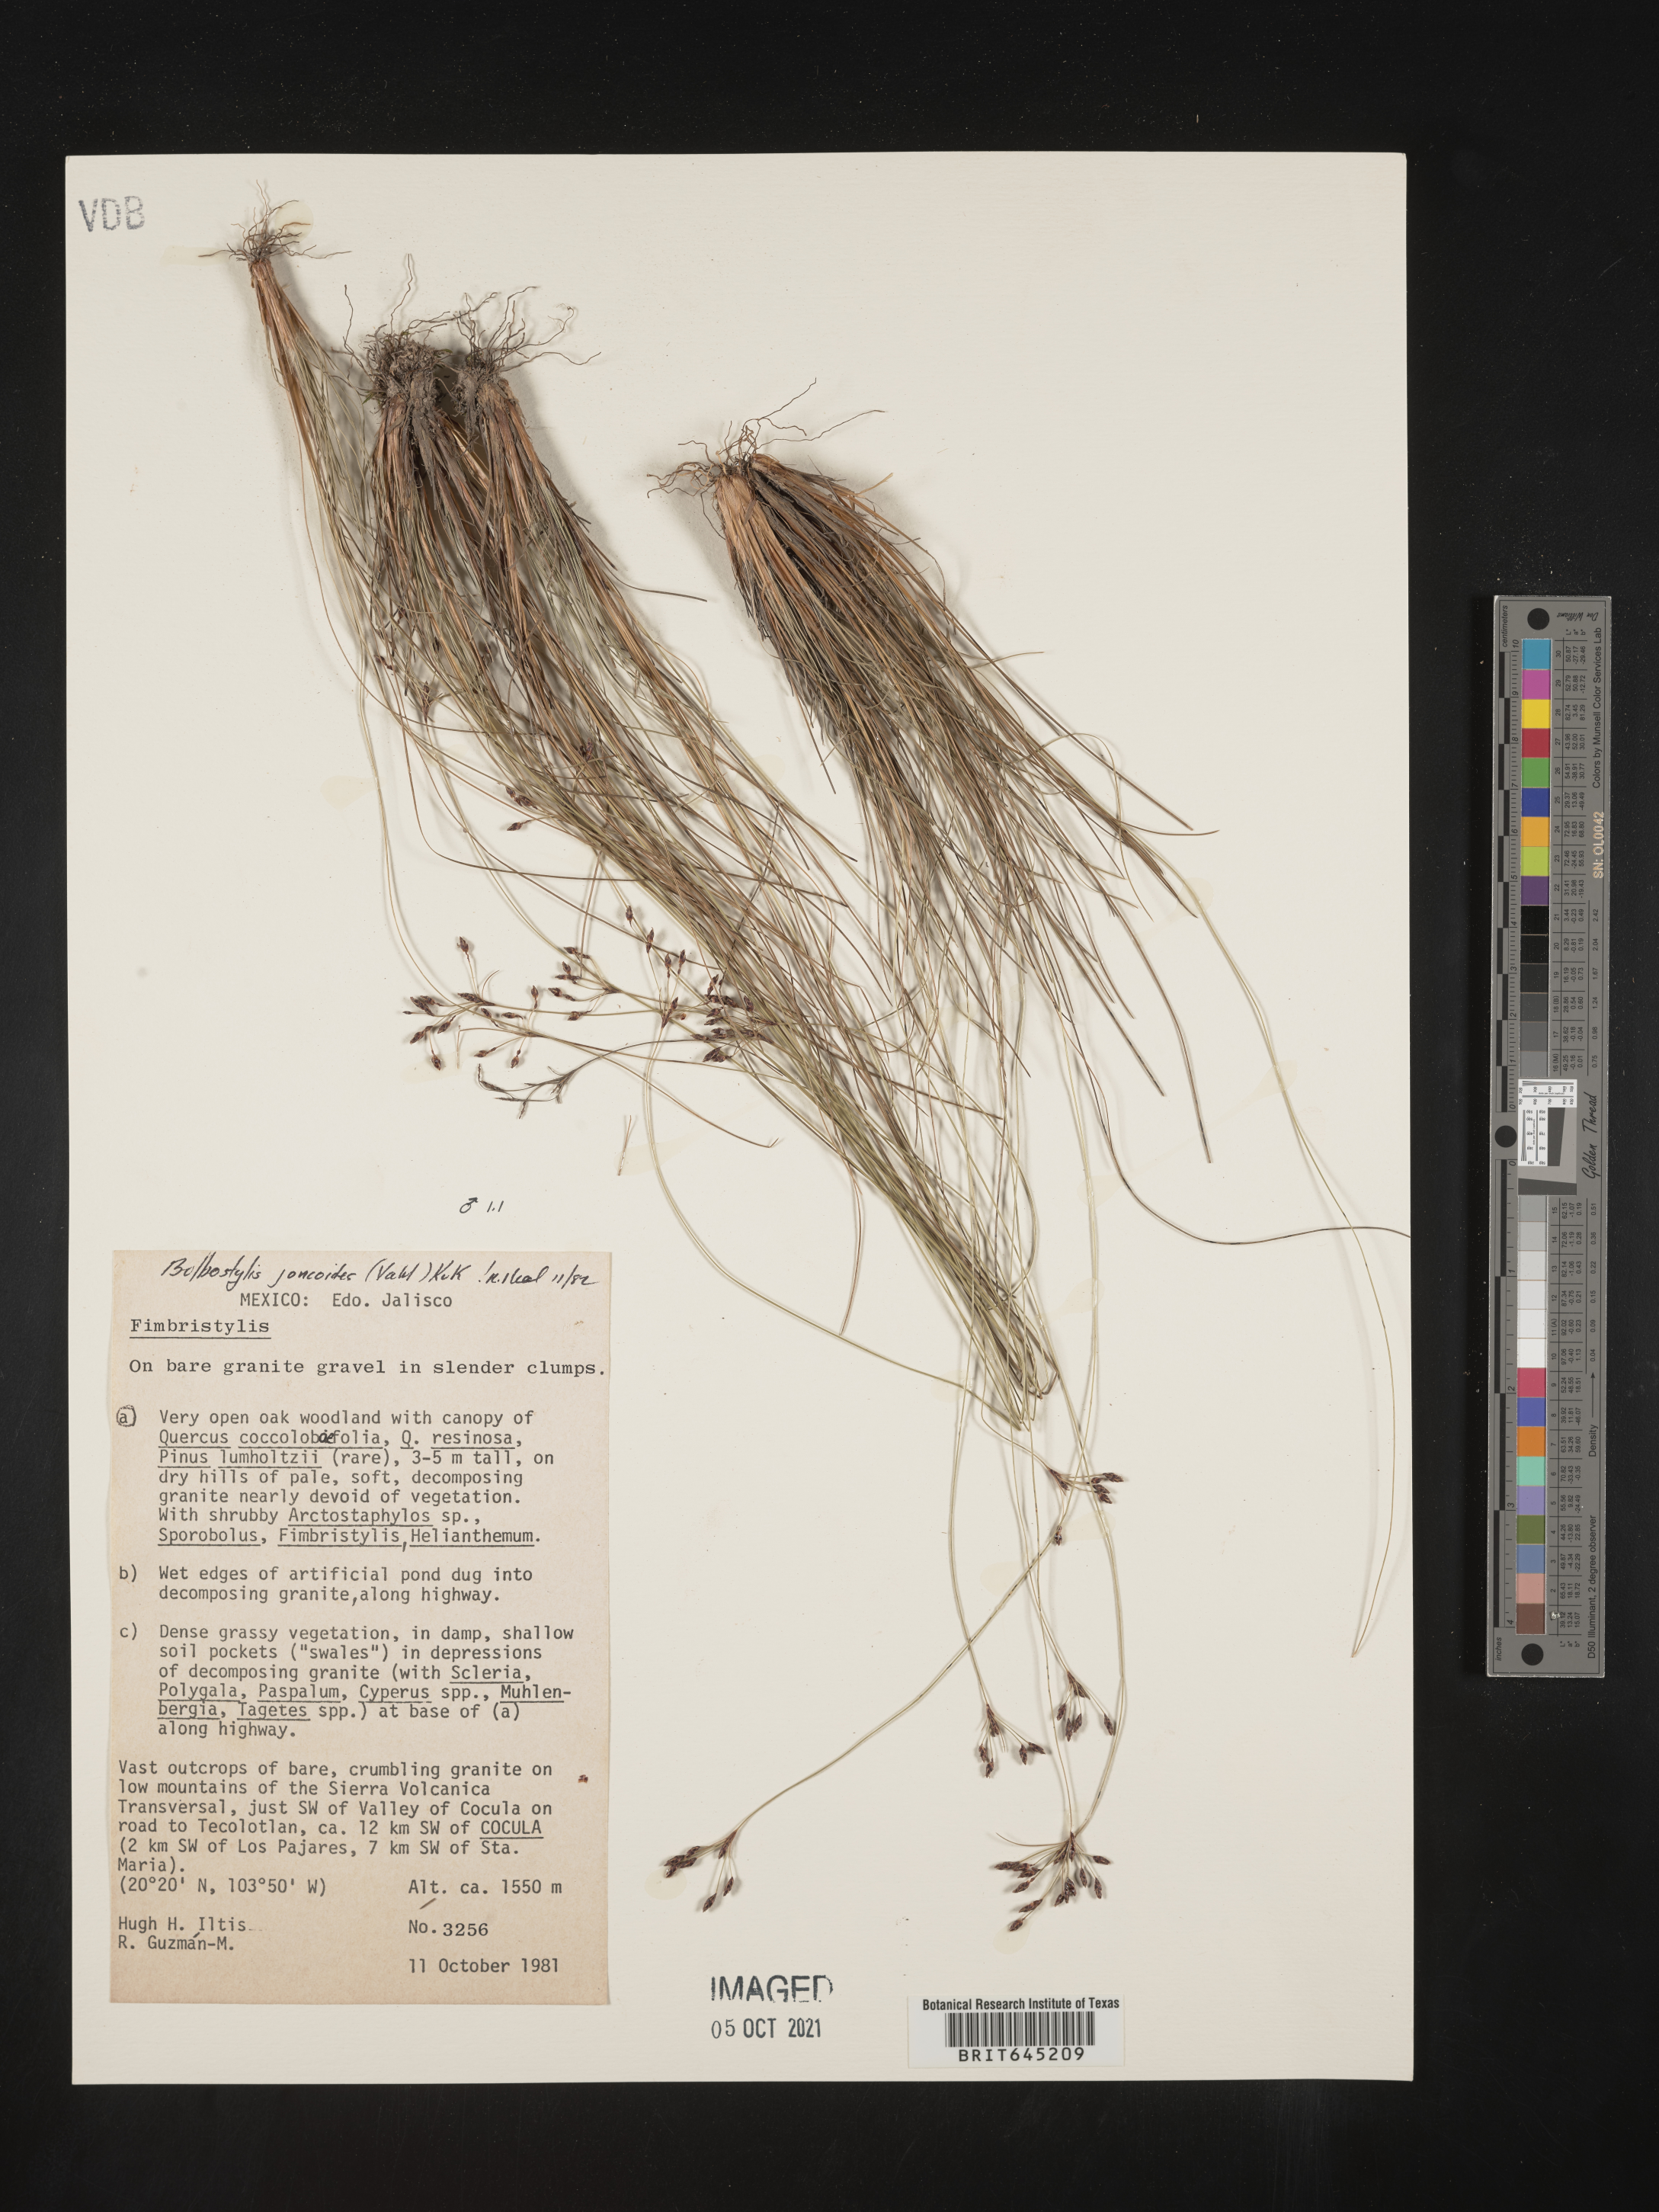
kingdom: Plantae
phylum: Tracheophyta
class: Liliopsida
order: Poales
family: Cyperaceae
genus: Bulbostylis
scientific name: Bulbostylis juncoides
